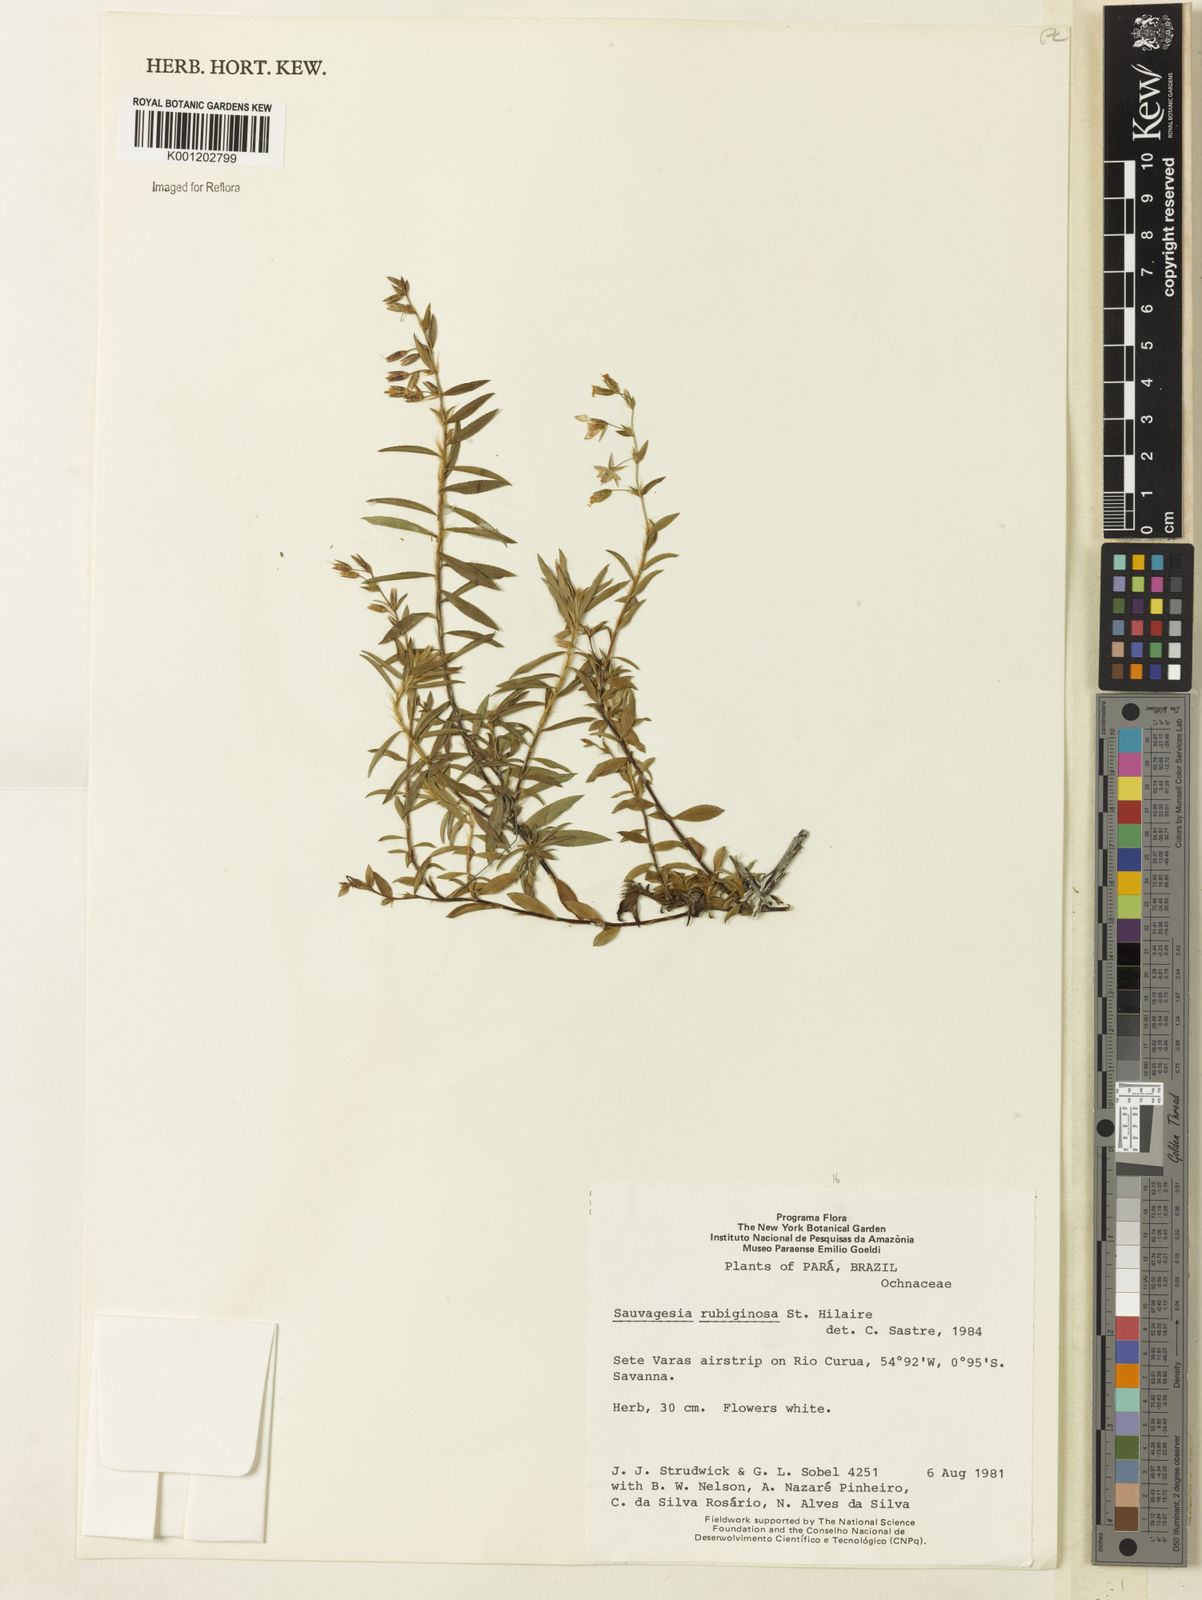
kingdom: Plantae
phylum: Tracheophyta
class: Magnoliopsida
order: Malpighiales
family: Ochnaceae
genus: Sauvagesia
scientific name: Sauvagesia rubiginosa
